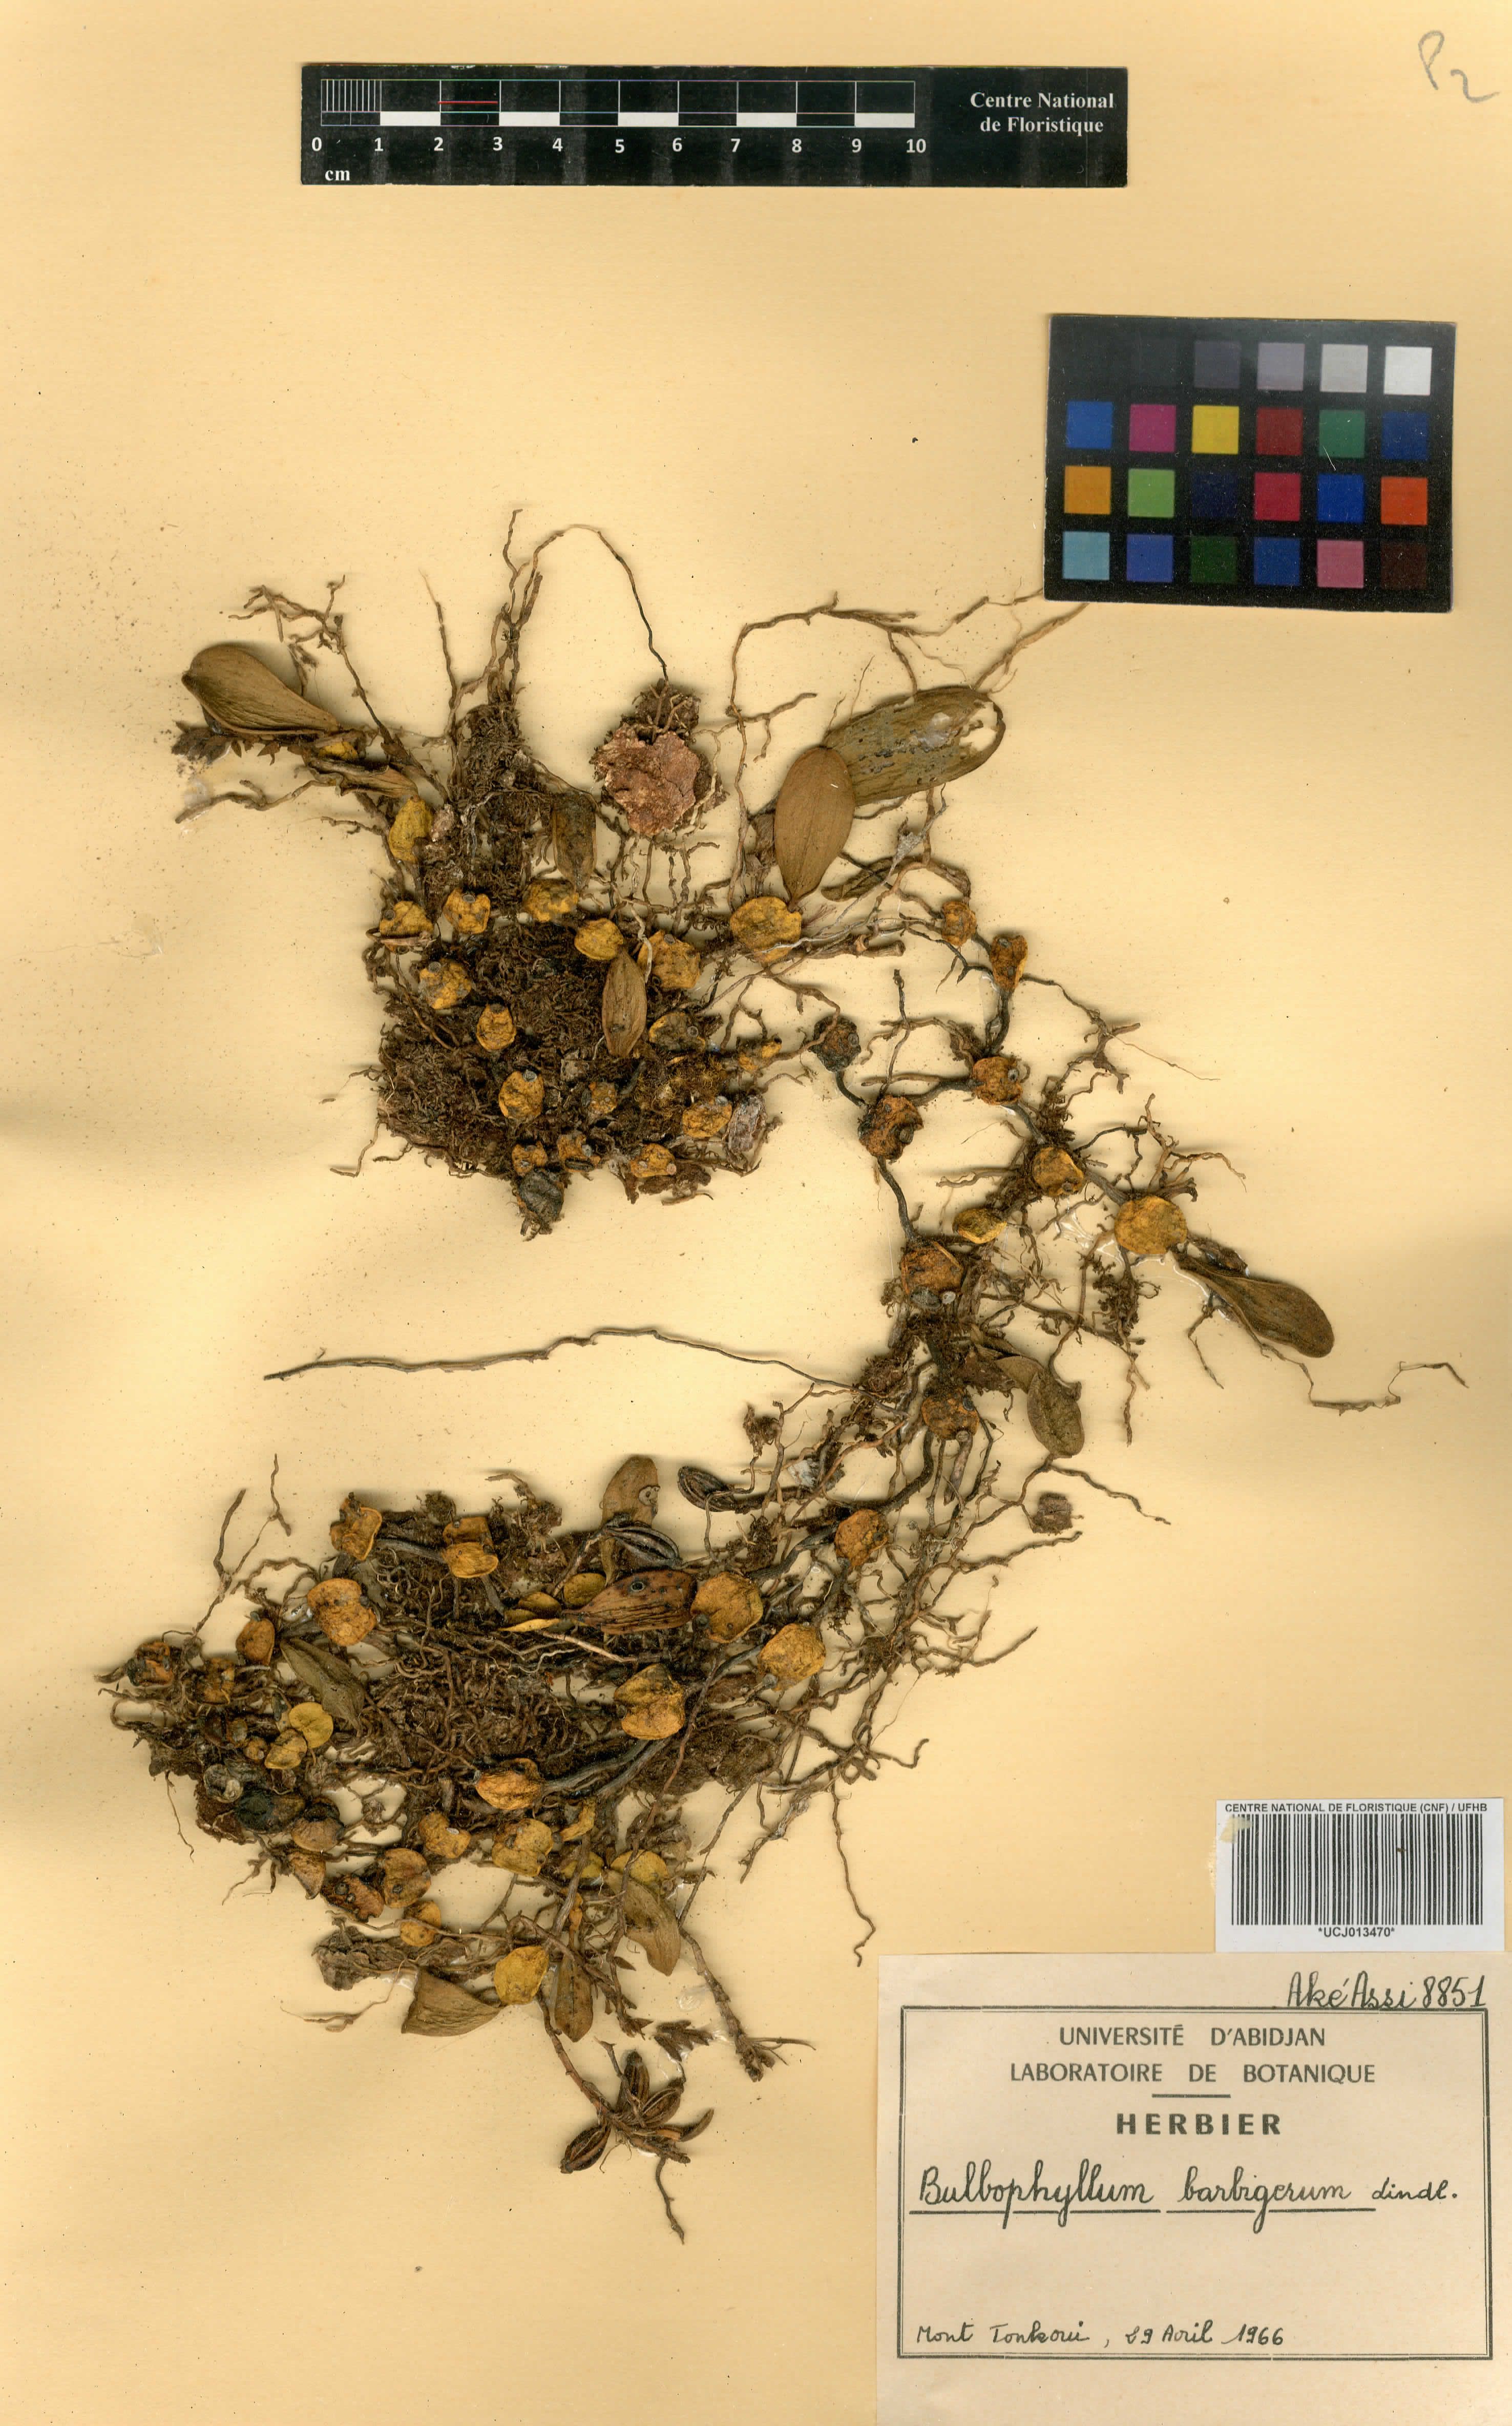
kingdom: Plantae
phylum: Tracheophyta
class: Liliopsida
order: Asparagales
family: Orchidaceae
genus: Bulbophyllum
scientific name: Bulbophyllum barbigerum
